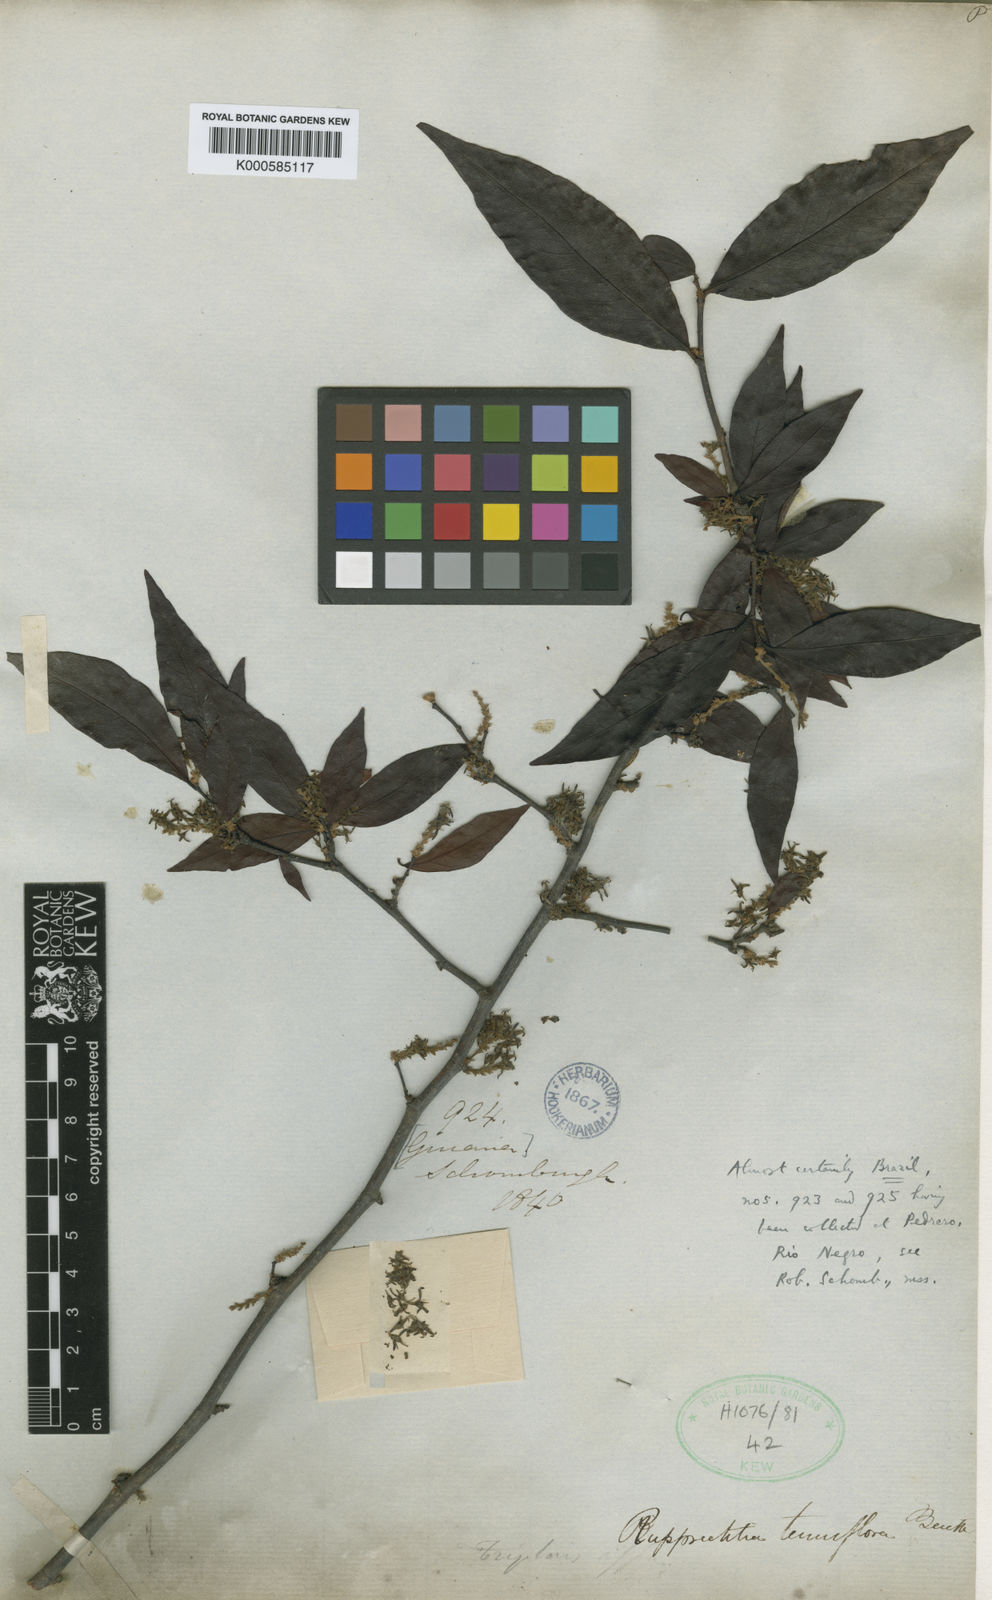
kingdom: Plantae
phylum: Tracheophyta
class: Magnoliopsida
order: Caryophyllales
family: Polygonaceae
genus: Ruprechtia
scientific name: Ruprechtia tenuiflora
